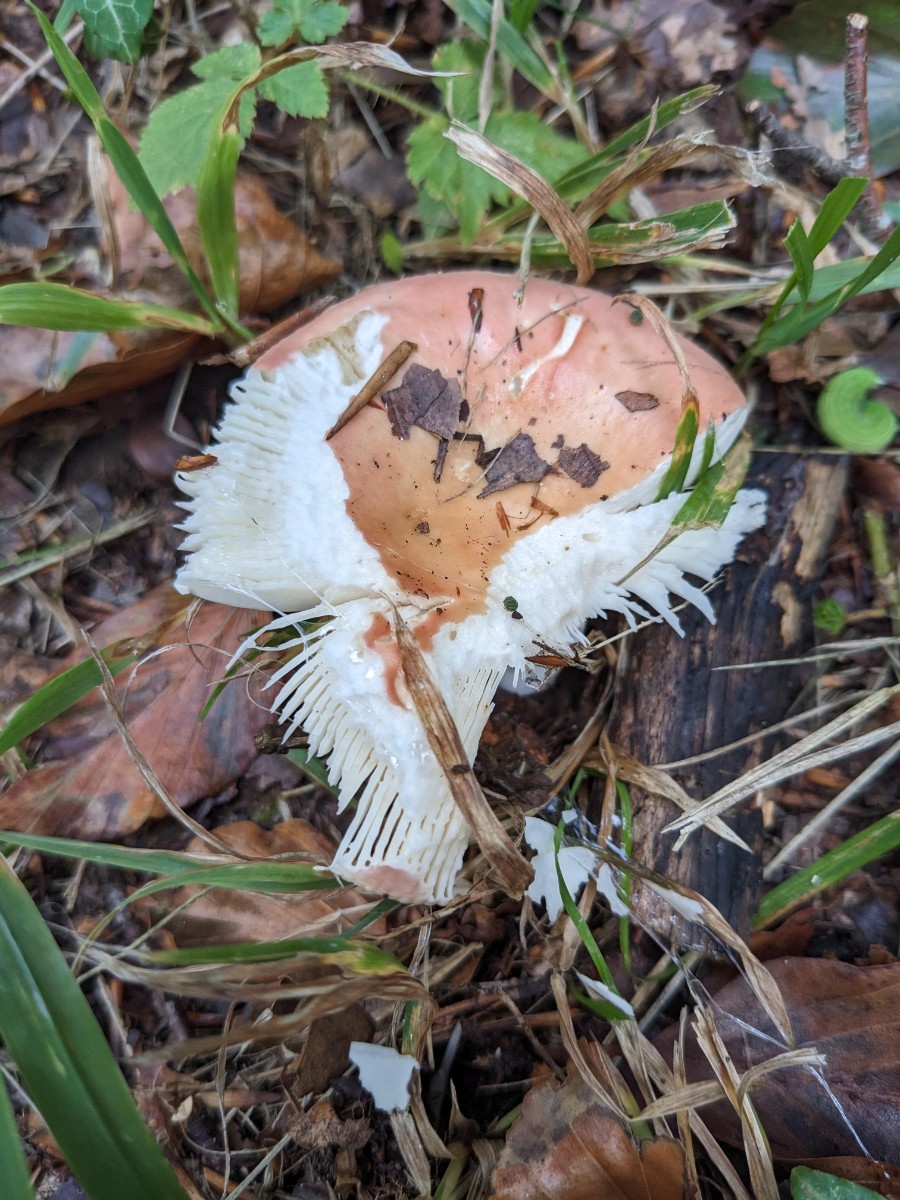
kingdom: Fungi
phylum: Basidiomycota
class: Agaricomycetes
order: Russulales
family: Russulaceae
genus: Russula
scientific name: Russula veternosa
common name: blødkødet skørhat
